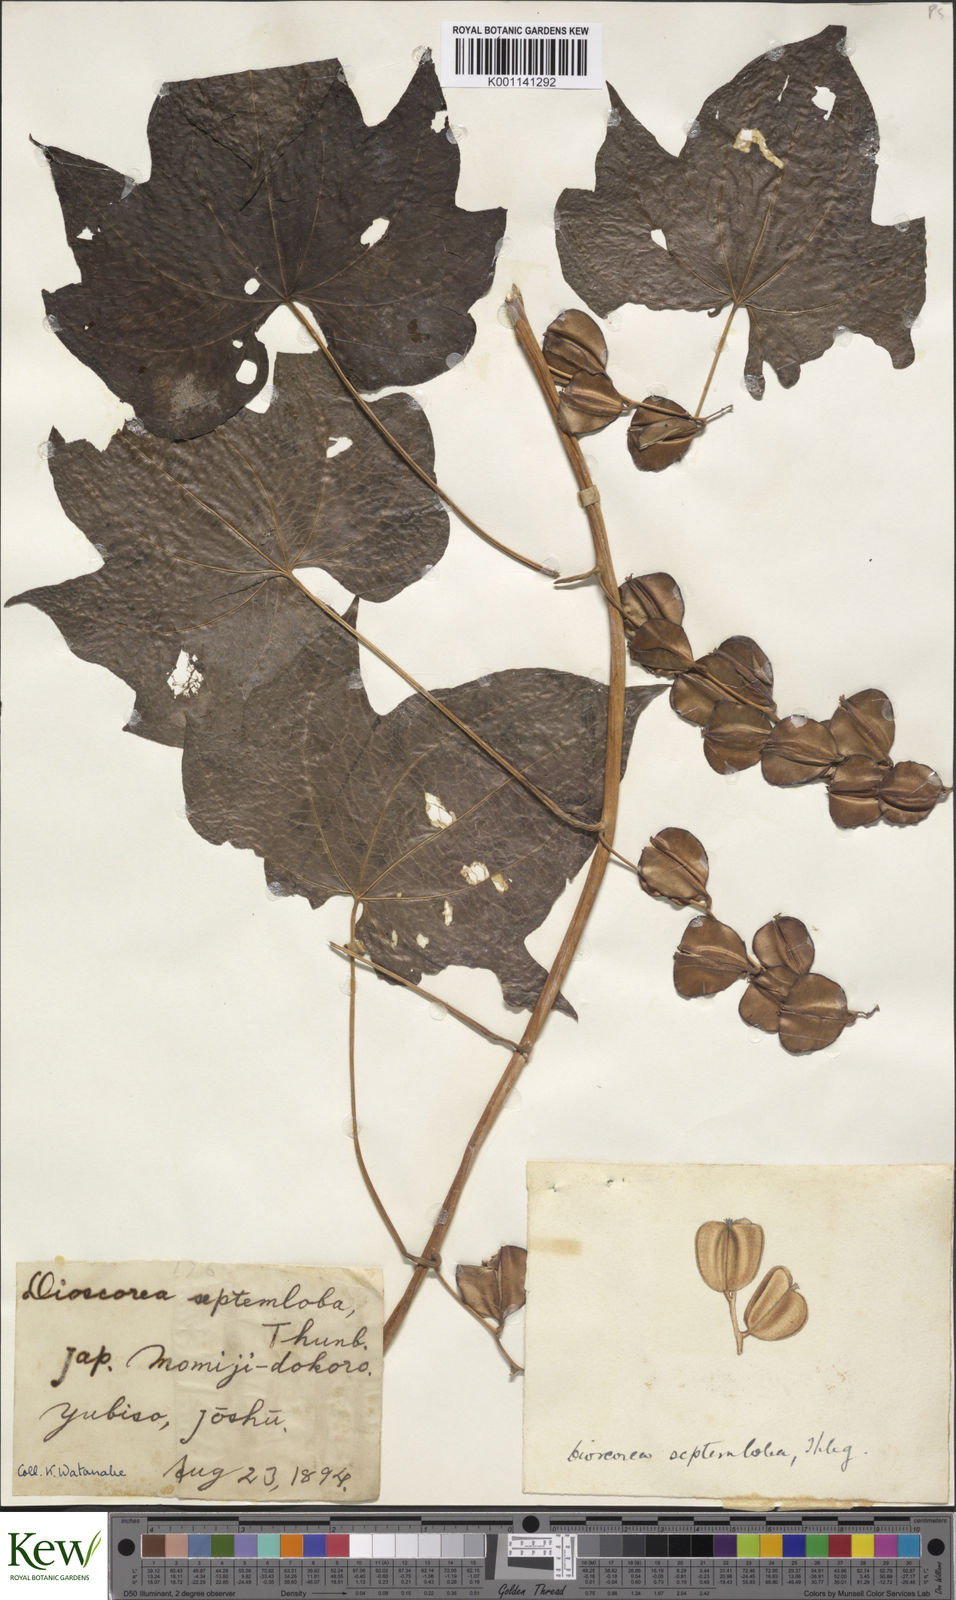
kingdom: Plantae
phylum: Tracheophyta
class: Liliopsida
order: Dioscoreales
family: Dioscoreaceae
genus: Dioscorea
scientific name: Dioscorea septemloba
